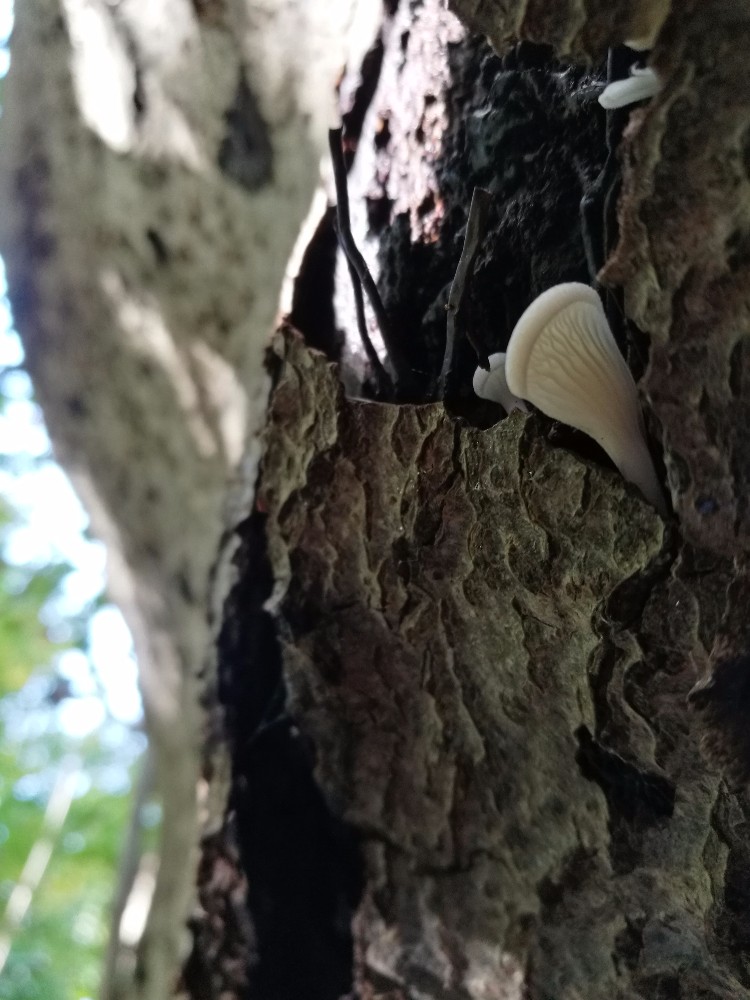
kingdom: Fungi
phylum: Basidiomycota
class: Agaricomycetes
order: Agaricales
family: Pleurotaceae
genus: Hohenbuehelia
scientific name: Hohenbuehelia auriscalpium
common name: spatel-filthat
